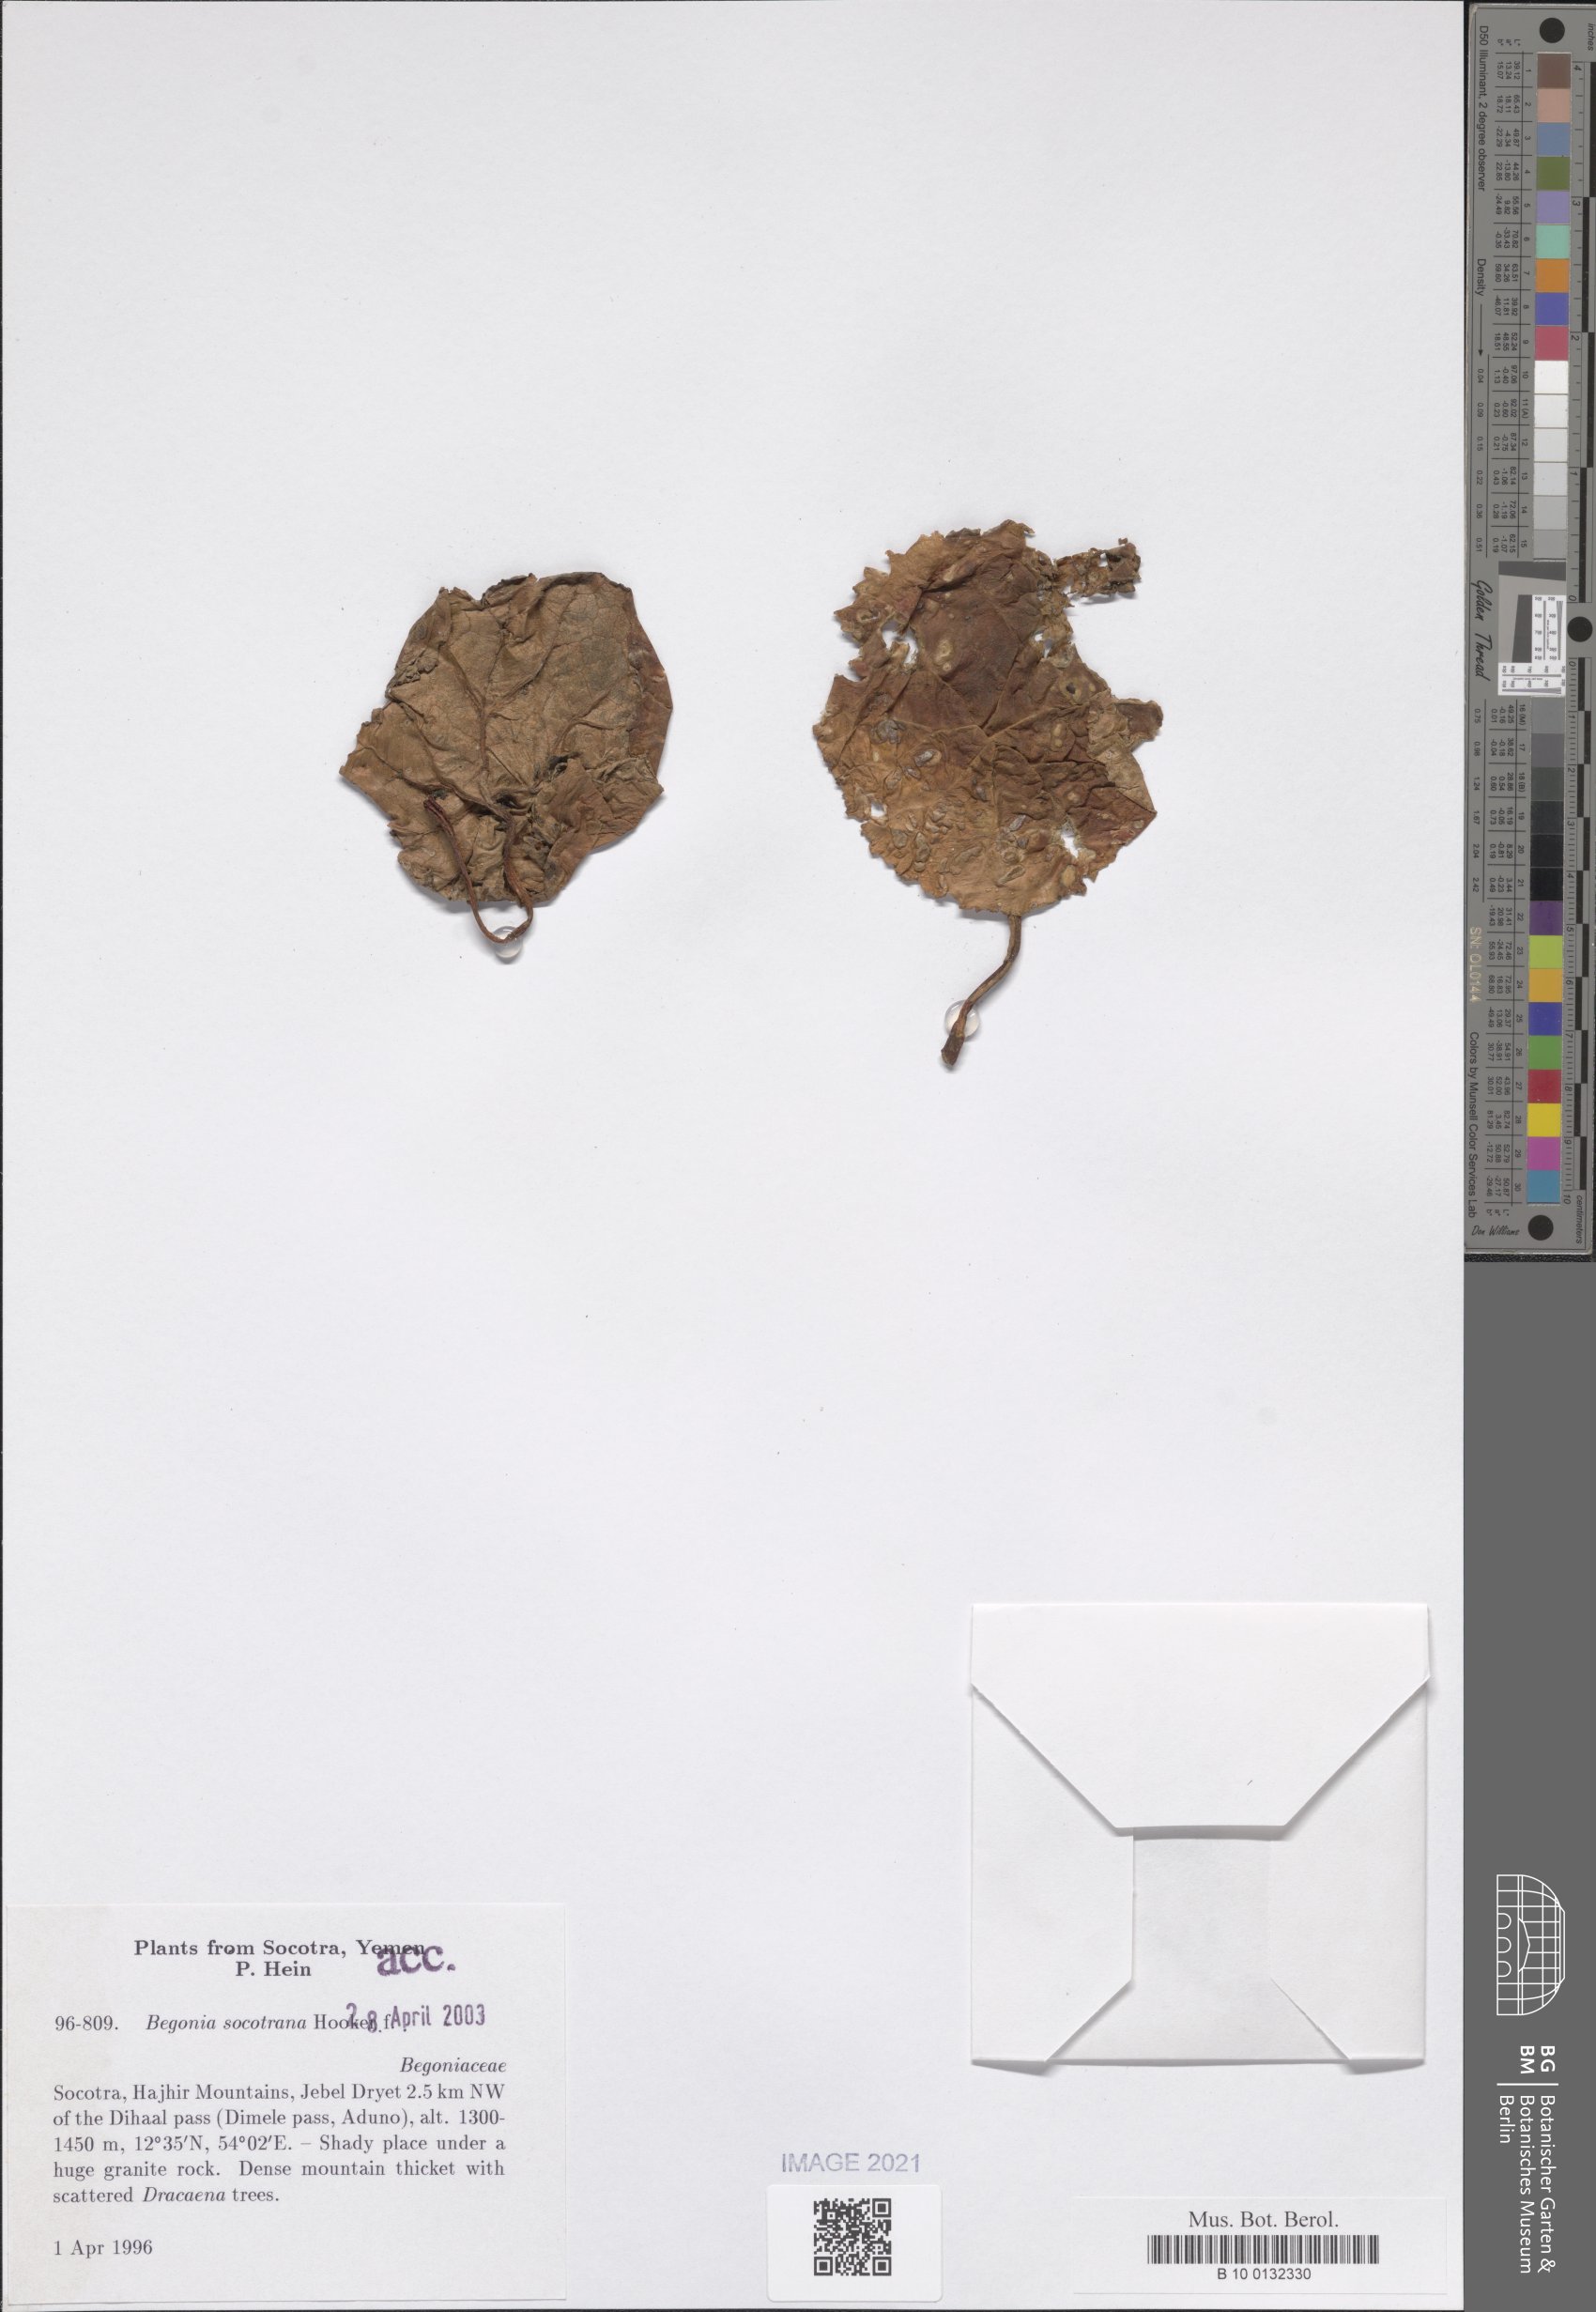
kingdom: Plantae
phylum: Tracheophyta
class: Magnoliopsida
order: Cucurbitales
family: Begoniaceae
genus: Begonia
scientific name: Begonia socotrana
